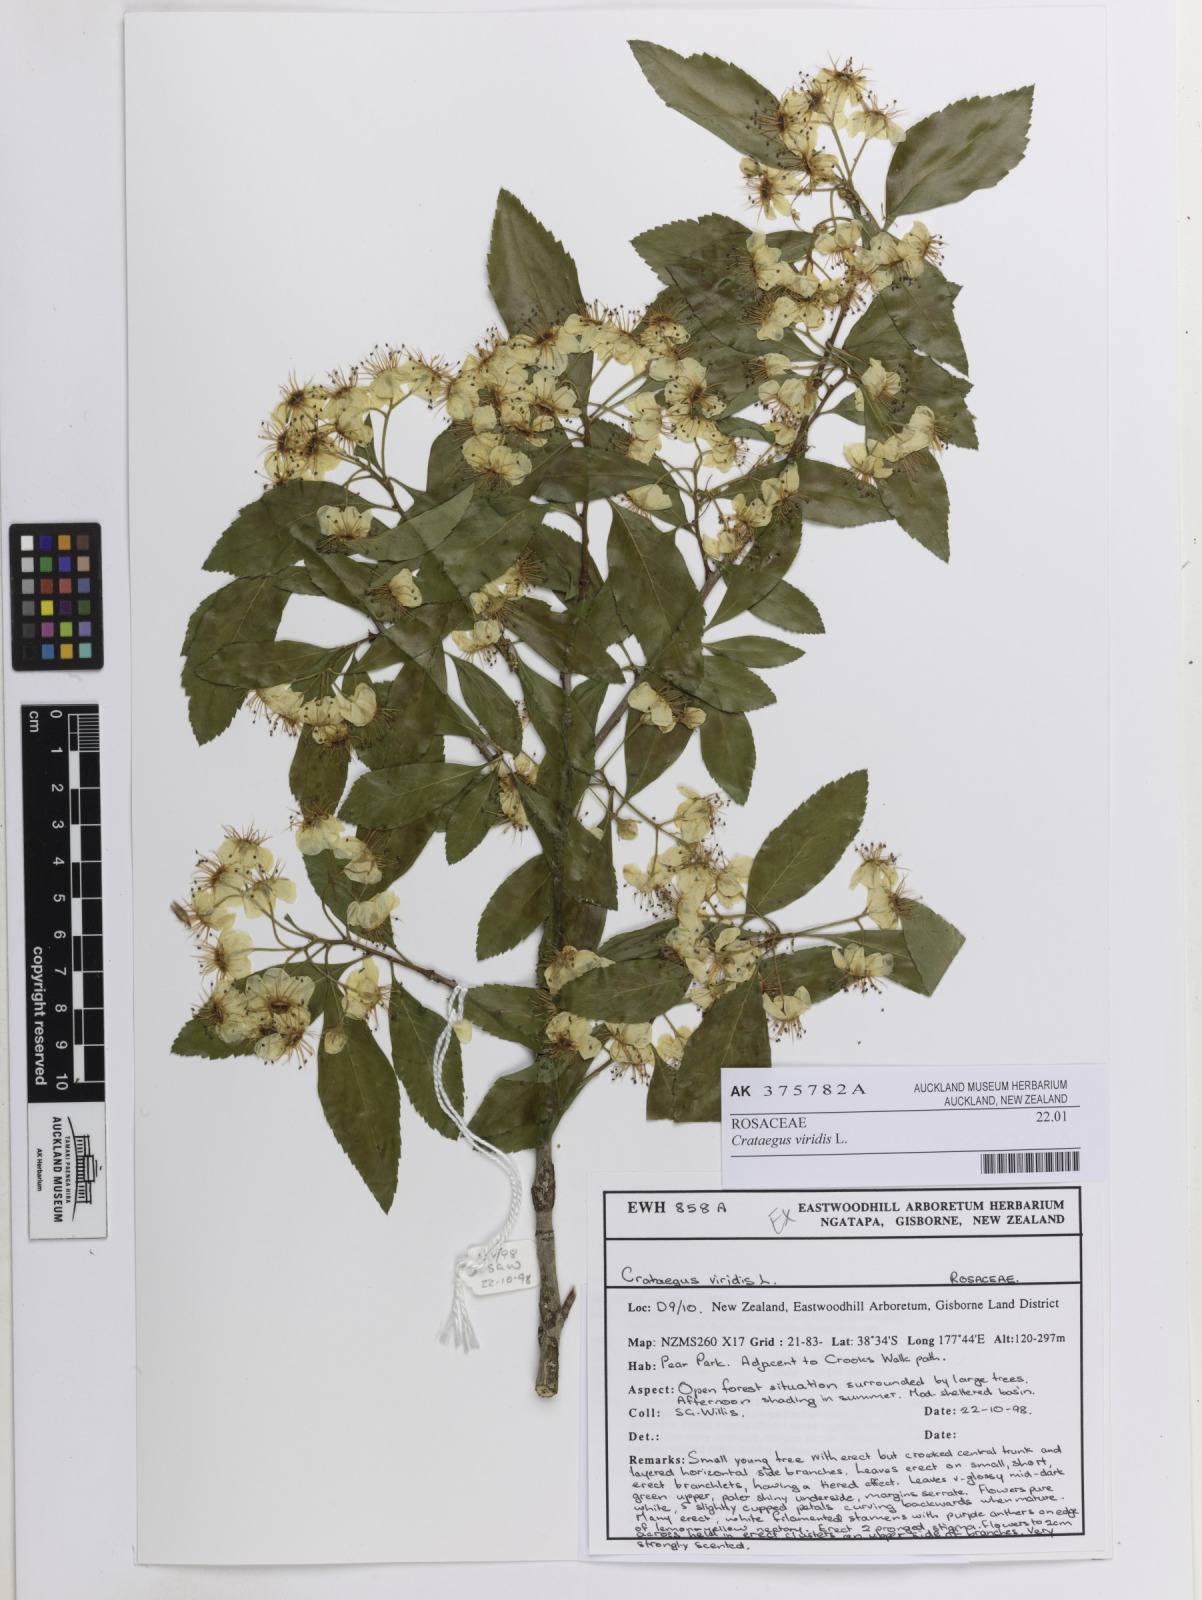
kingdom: Plantae
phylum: Tracheophyta
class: Magnoliopsida
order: Rosales
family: Rosaceae
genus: Crataegus
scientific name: Crataegus viridis
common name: Southernthorn
